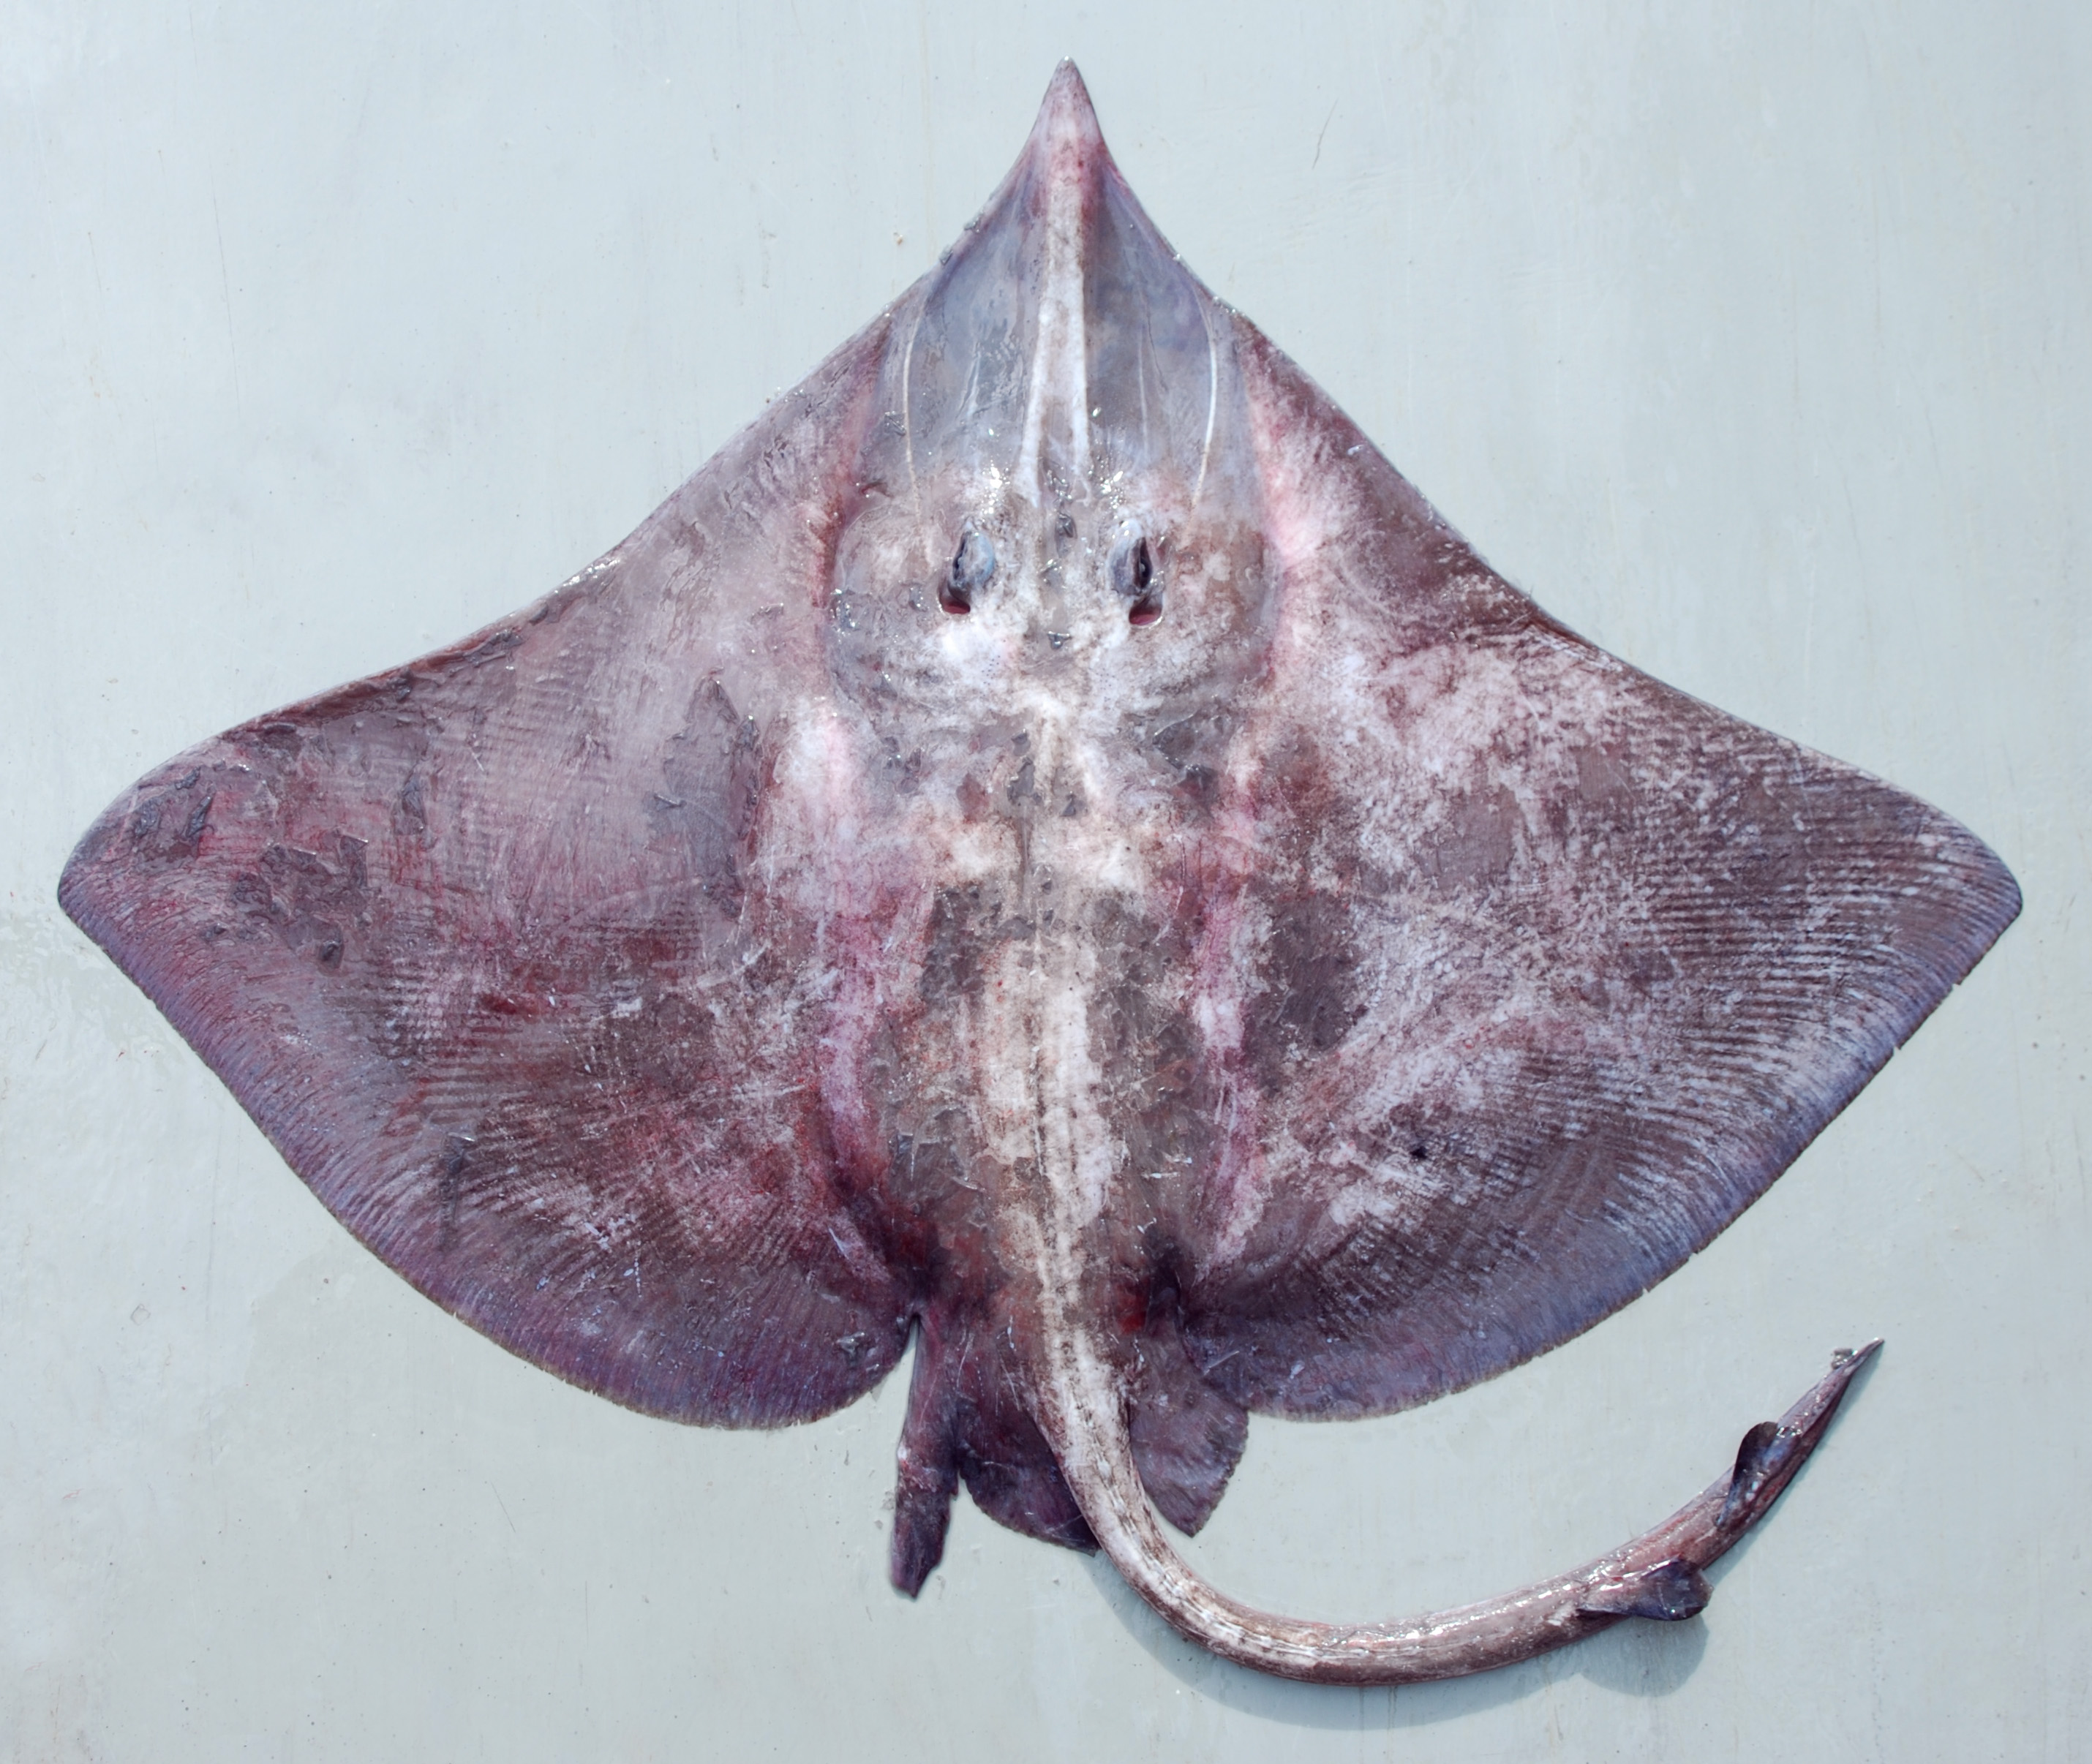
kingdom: Animalia
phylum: Chordata
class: Elasmobranchii
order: Rajiformes
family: Rajidae
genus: Dipturus
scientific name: Dipturus springeri
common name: Roughbelly skate
